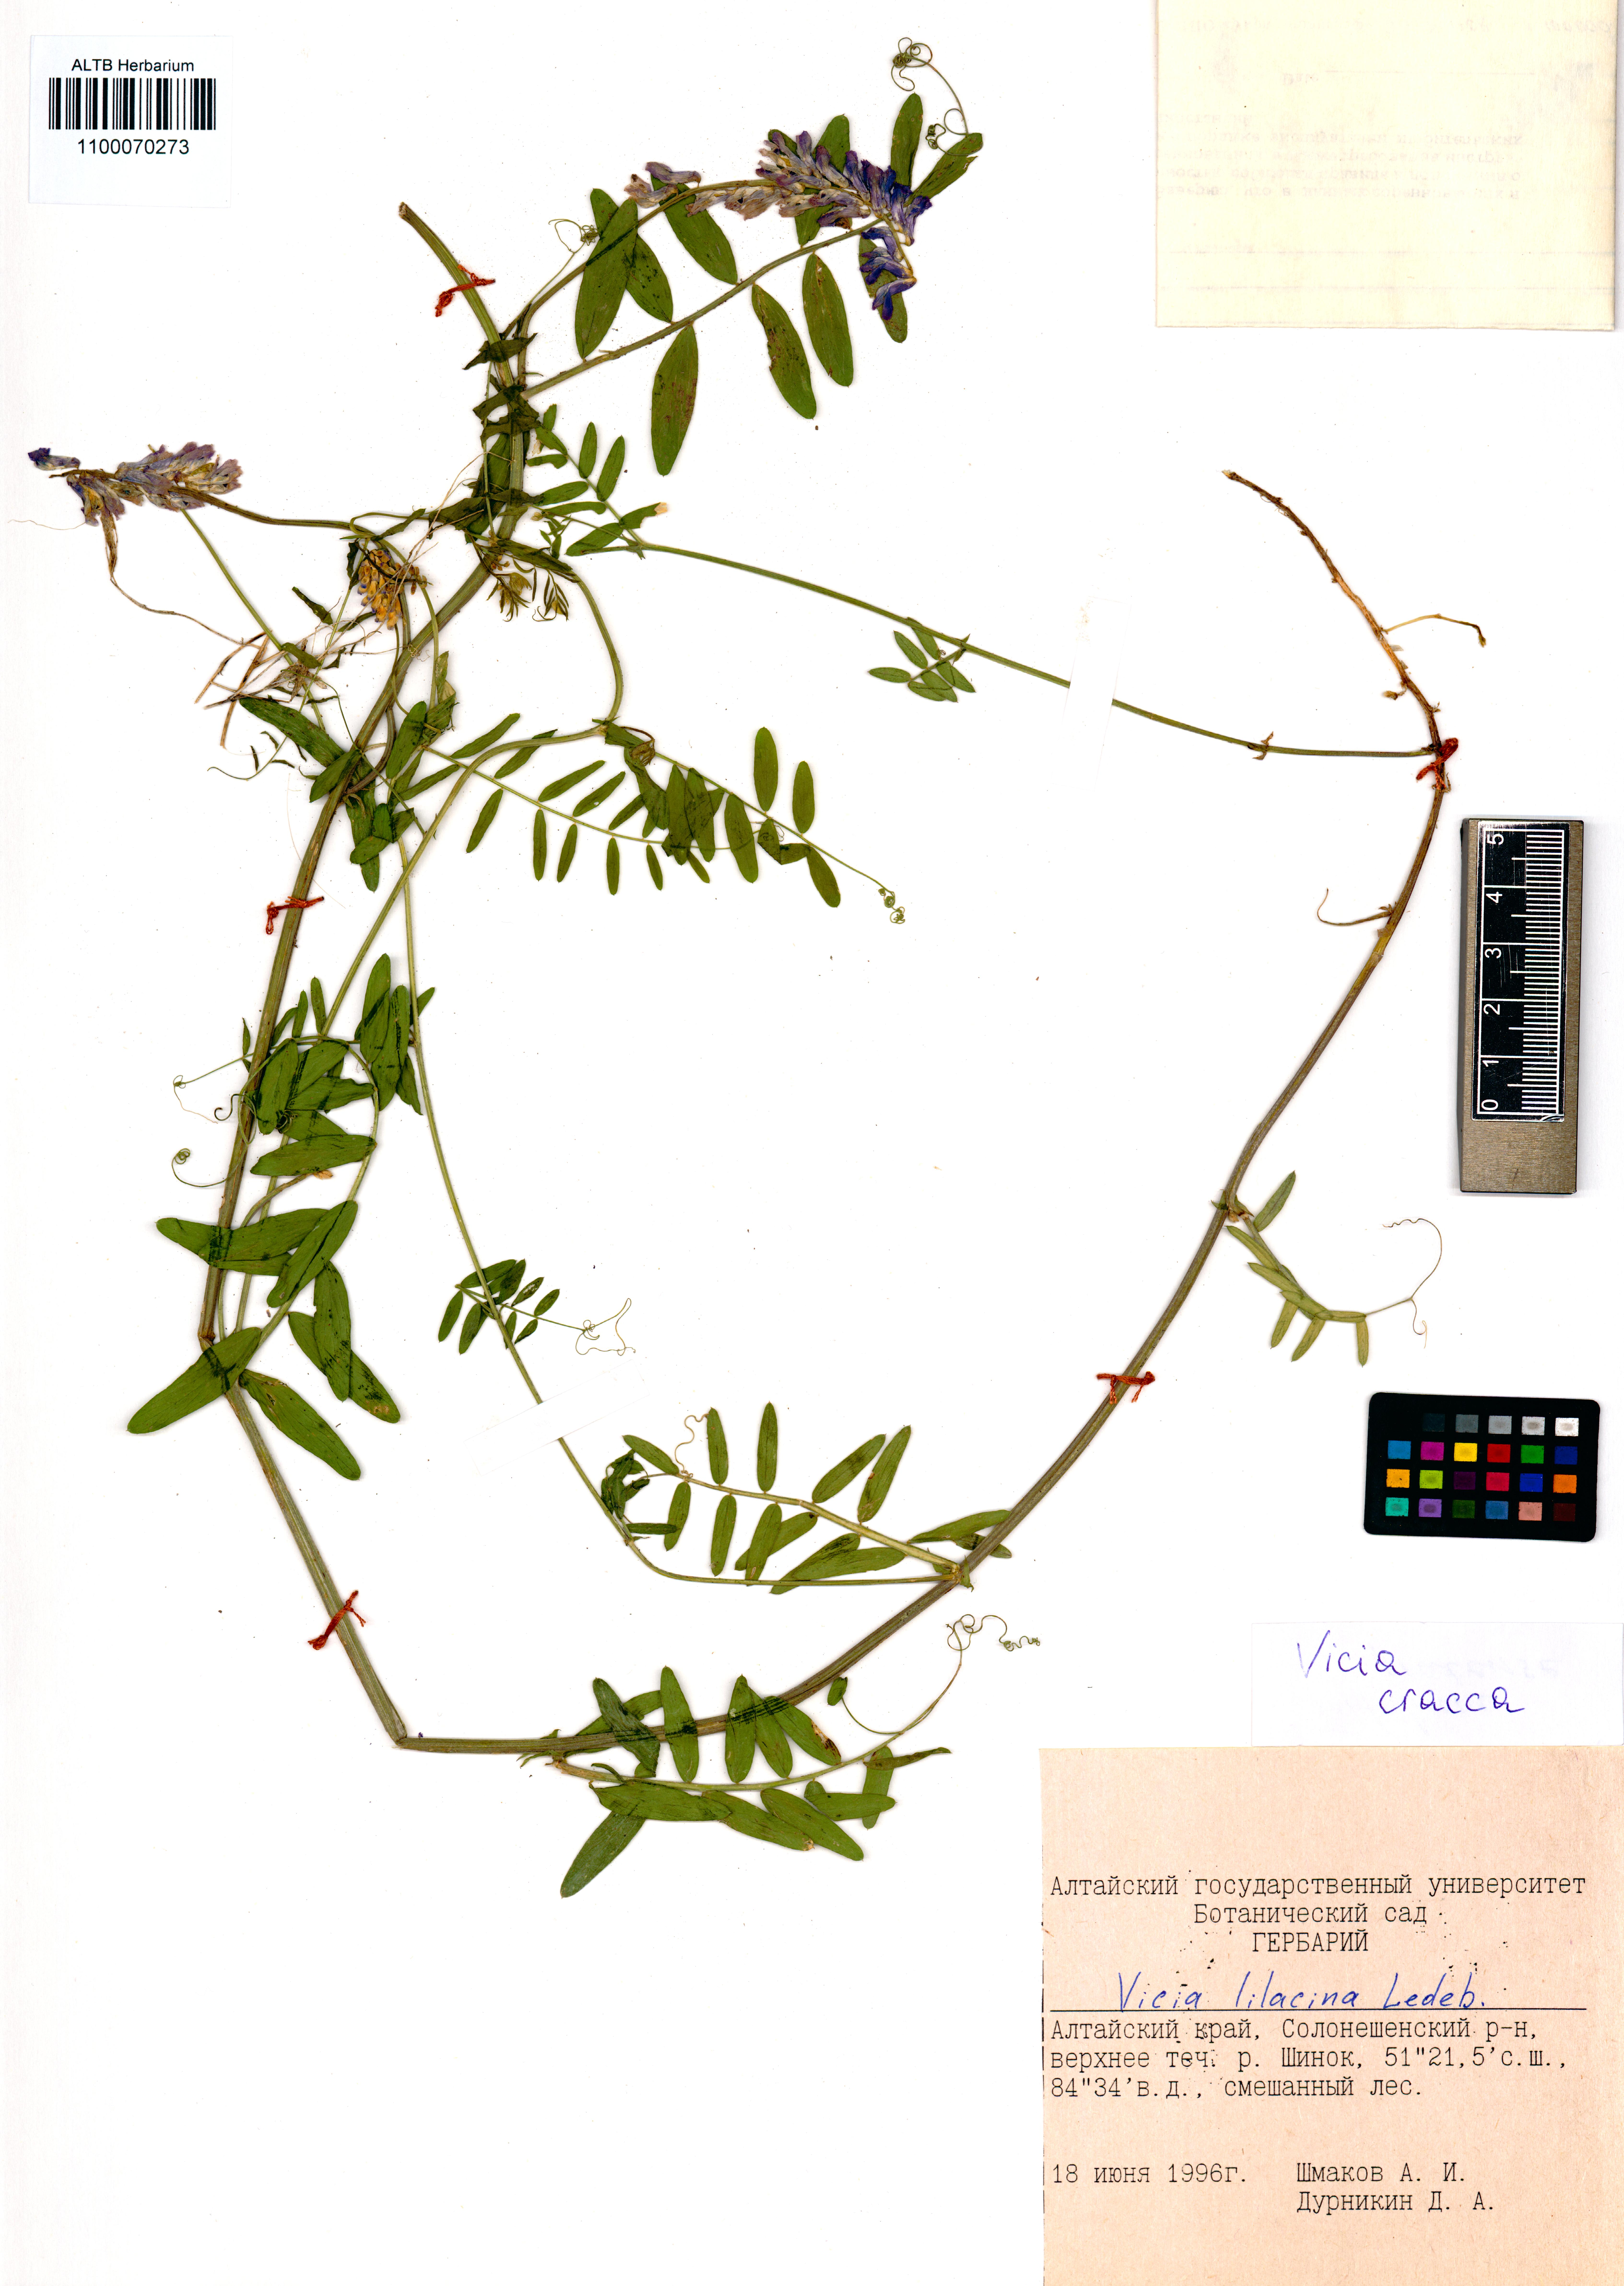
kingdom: Plantae
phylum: Tracheophyta
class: Magnoliopsida
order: Fabales
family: Fabaceae
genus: Vicia
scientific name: Vicia cracca
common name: Bird vetch
